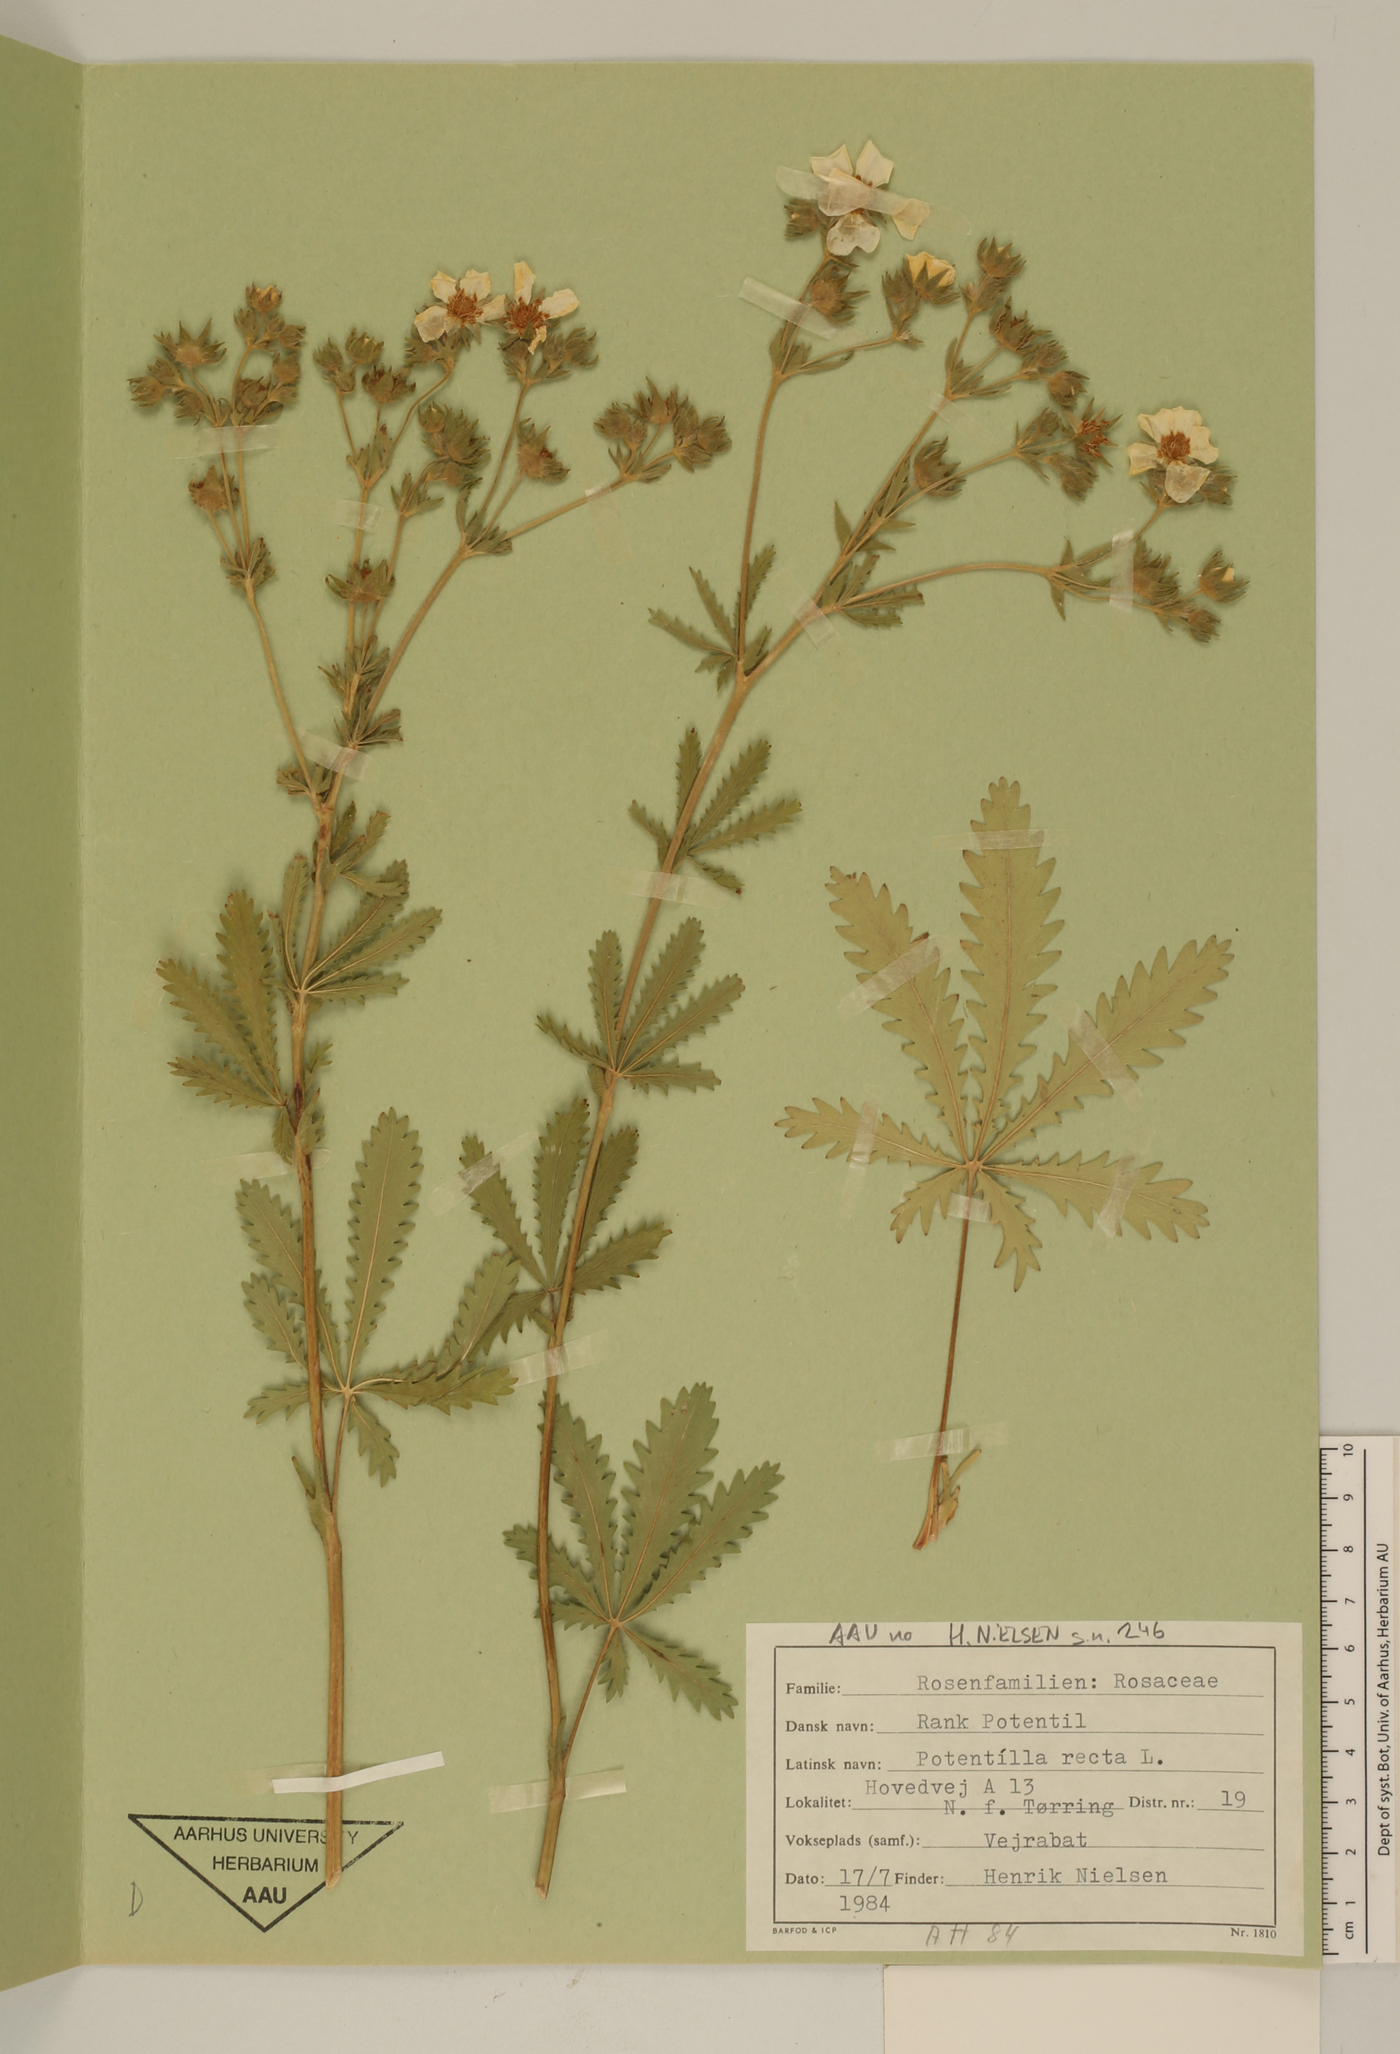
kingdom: Plantae
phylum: Tracheophyta
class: Magnoliopsida
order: Rosales
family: Rosaceae
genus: Potentilla
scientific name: Potentilla recta
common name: Sulphur cinquefoil
